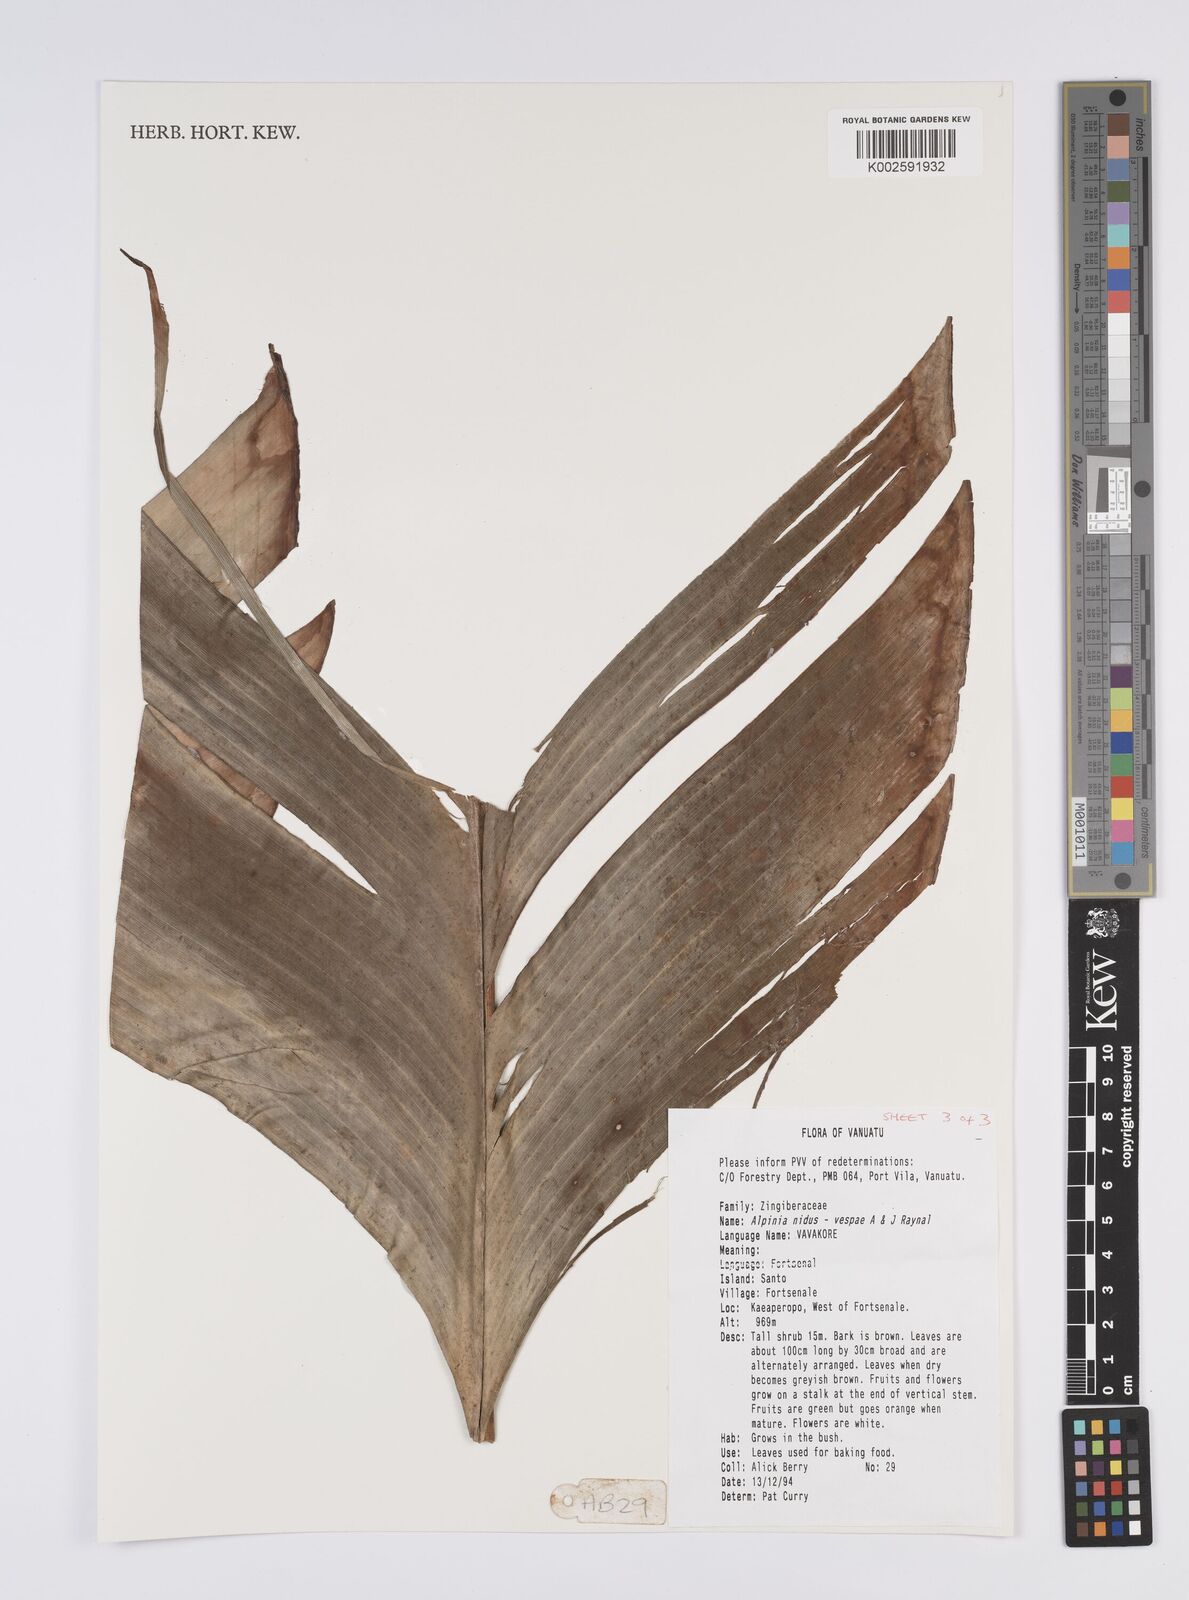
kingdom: Plantae
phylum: Tracheophyta
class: Liliopsida
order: Zingiberales
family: Zingiberaceae
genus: Alpinia
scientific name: Alpinia nidus-vespae
